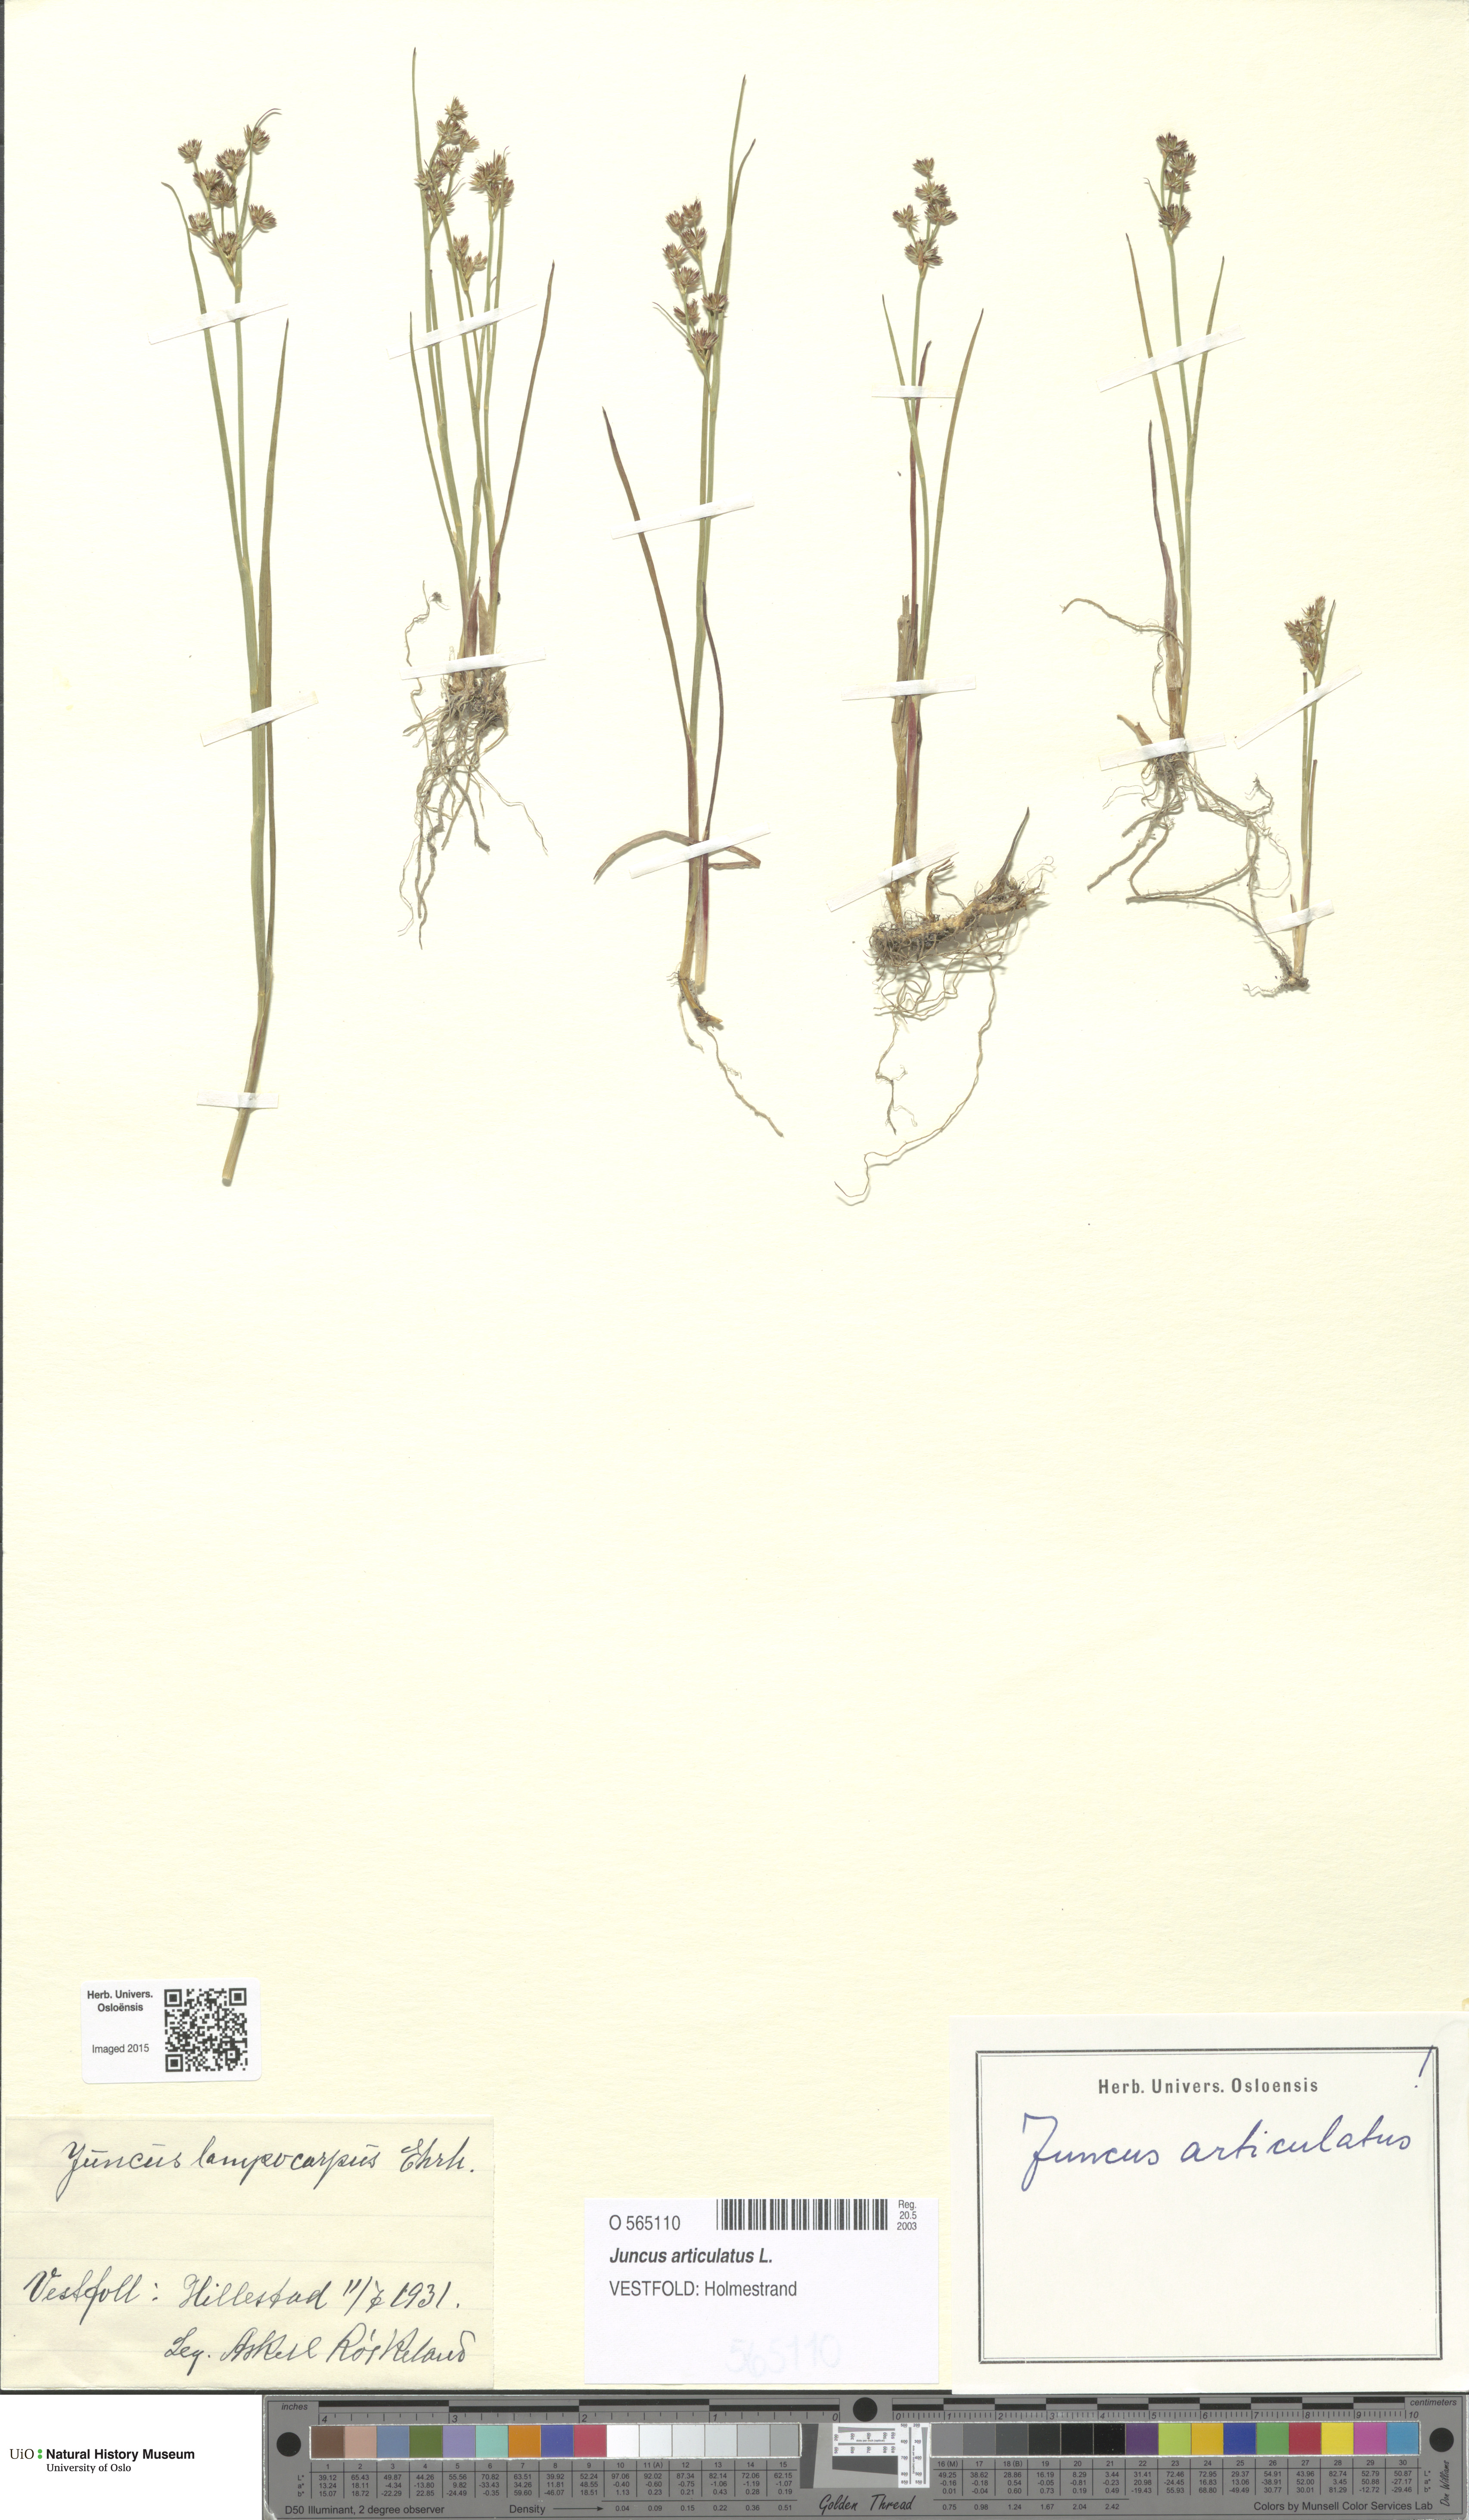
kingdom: Plantae
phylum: Tracheophyta
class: Liliopsida
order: Poales
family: Juncaceae
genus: Juncus
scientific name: Juncus articulatus
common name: Jointed rush
